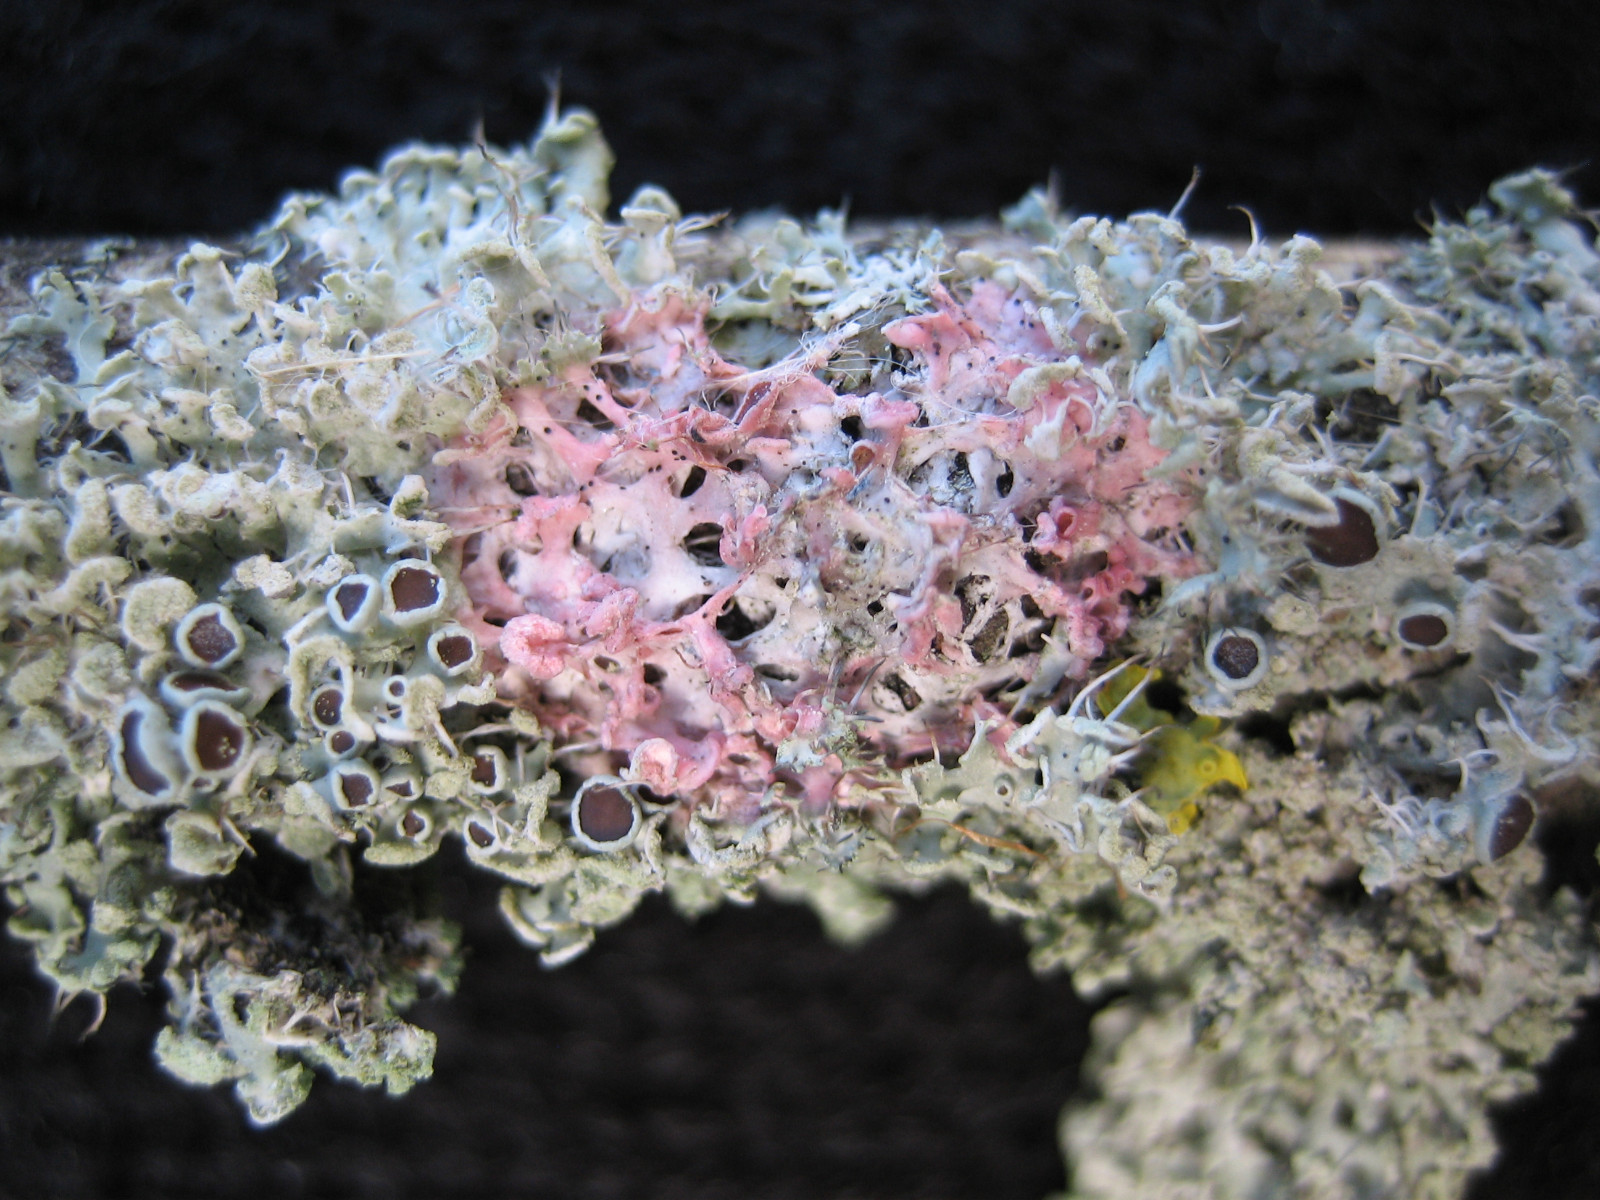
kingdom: Fungi
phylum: Basidiomycota
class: Agaricomycetes
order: Corticiales
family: Corticiaceae
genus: Laetisaria
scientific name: Laetisaria lichenicola
